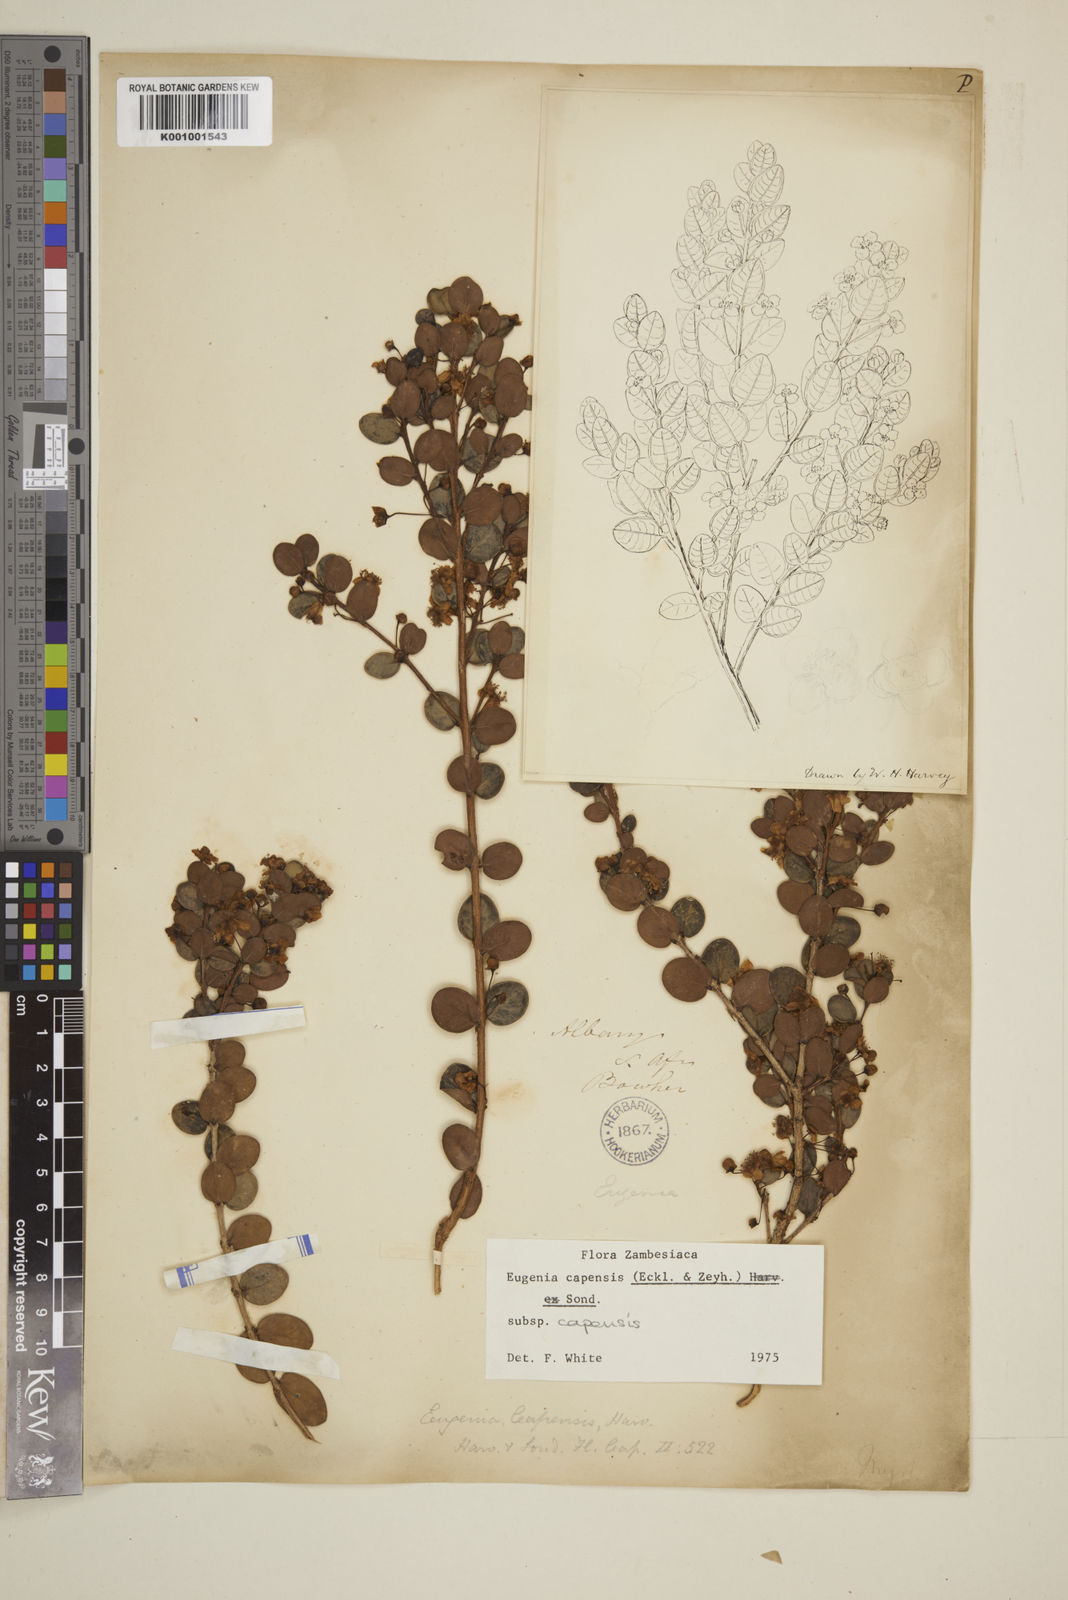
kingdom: Plantae
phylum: Tracheophyta
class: Magnoliopsida
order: Myrtales
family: Myrtaceae
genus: Eugenia
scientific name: Eugenia capensis
